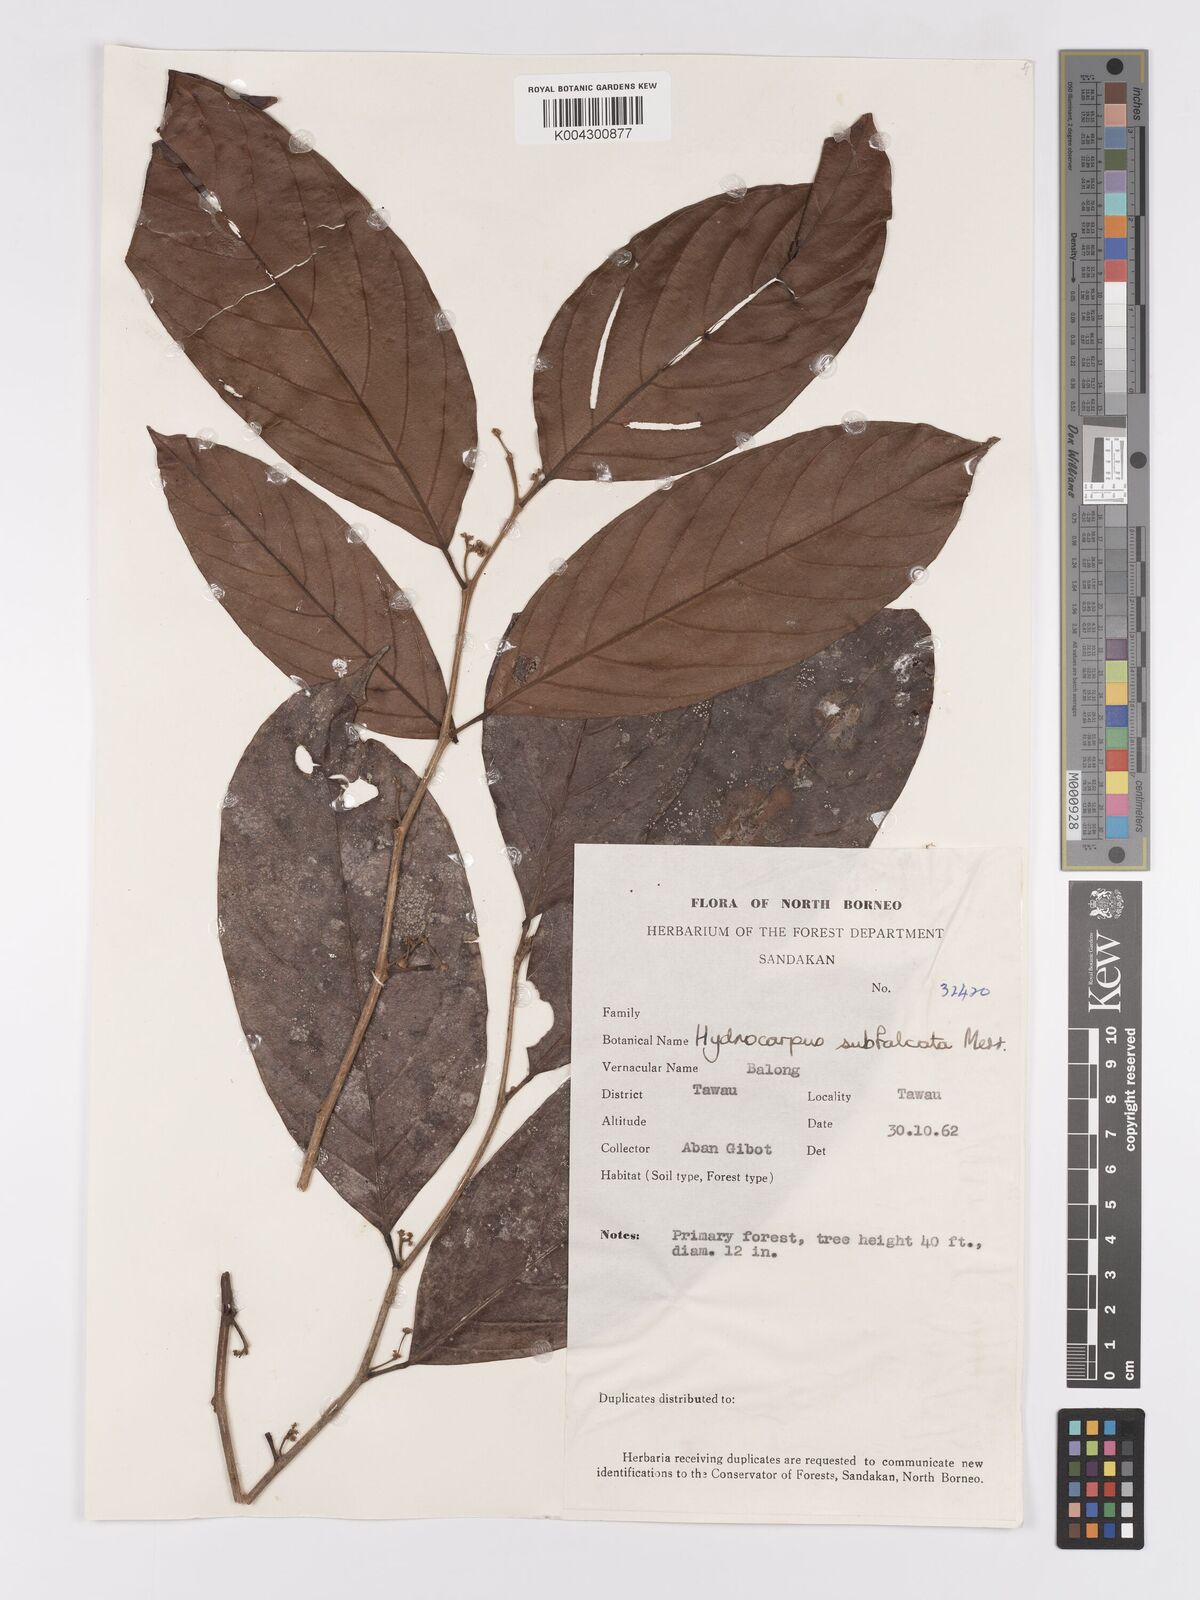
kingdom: Plantae
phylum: Tracheophyta
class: Magnoliopsida
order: Malpighiales
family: Achariaceae
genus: Hydnocarpus
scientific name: Hydnocarpus subfalcatus
